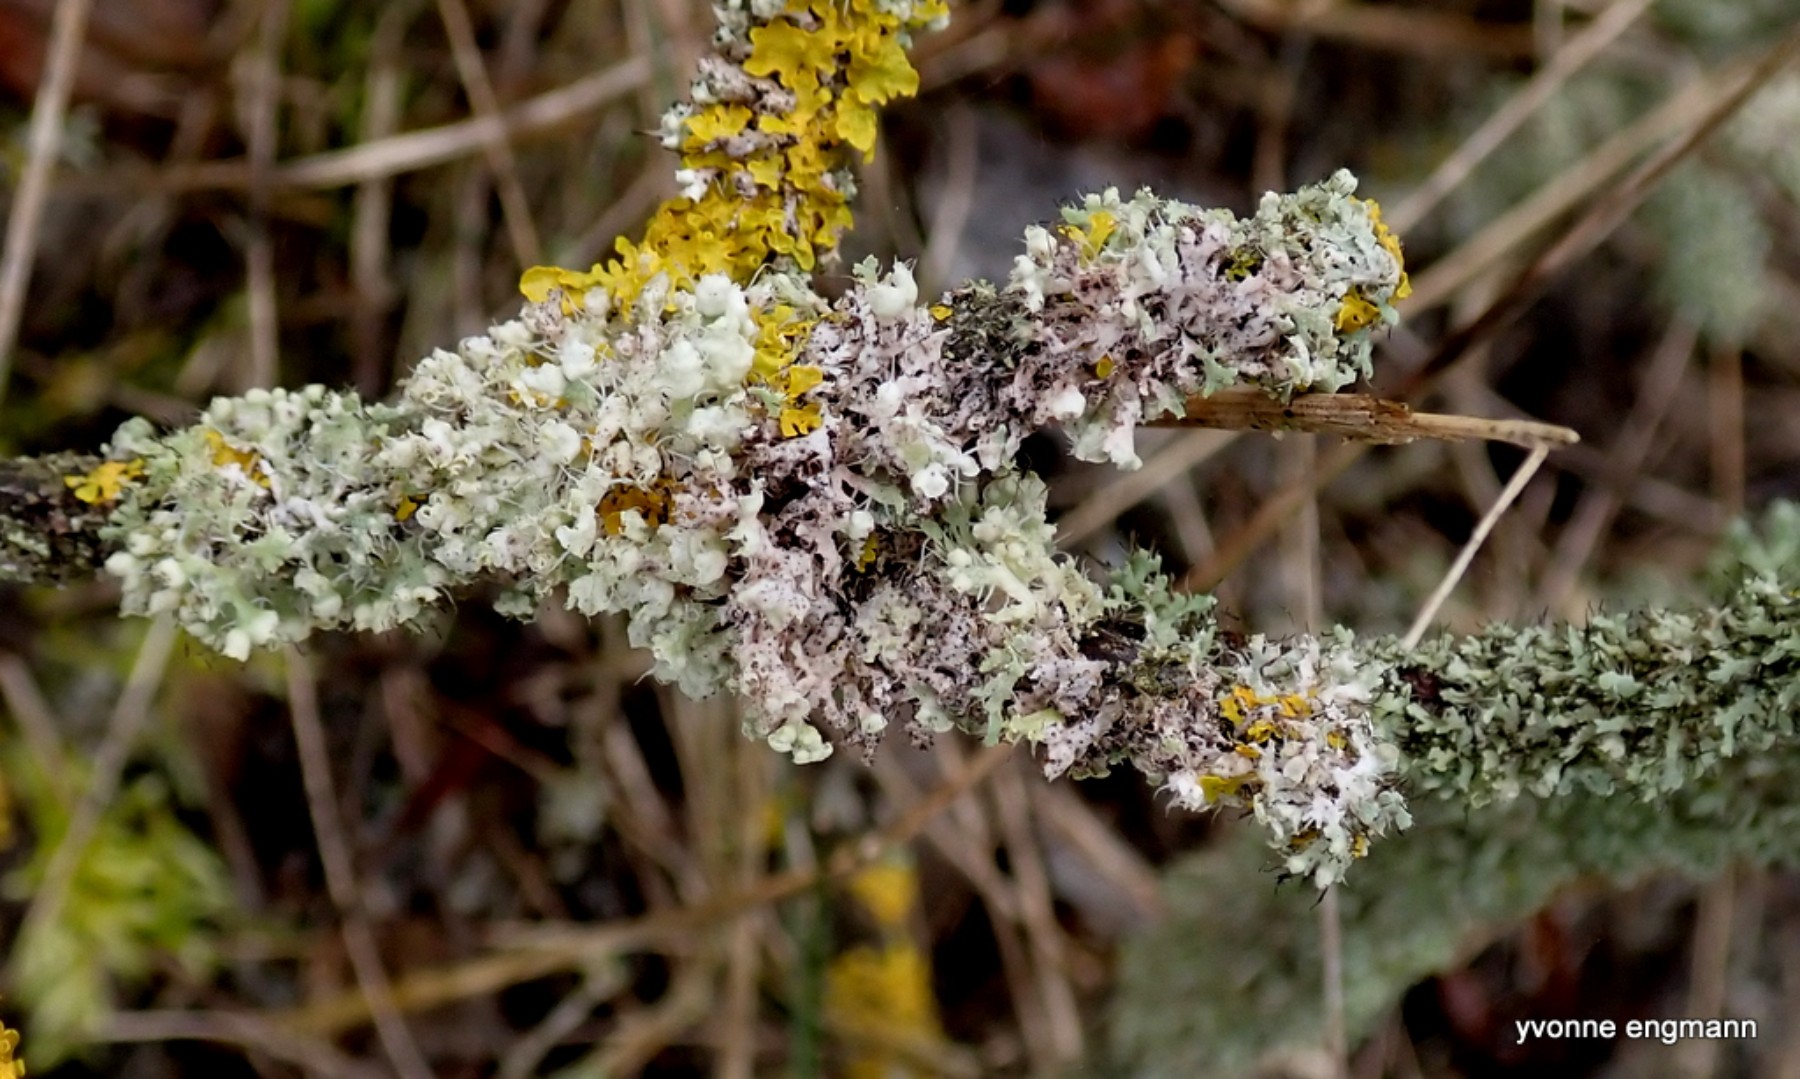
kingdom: Fungi
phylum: Ascomycota
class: Lecanoromycetes
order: Caliciales
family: Physciaceae
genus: Physcia
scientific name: Physcia tenella
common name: spæd rosetlav
